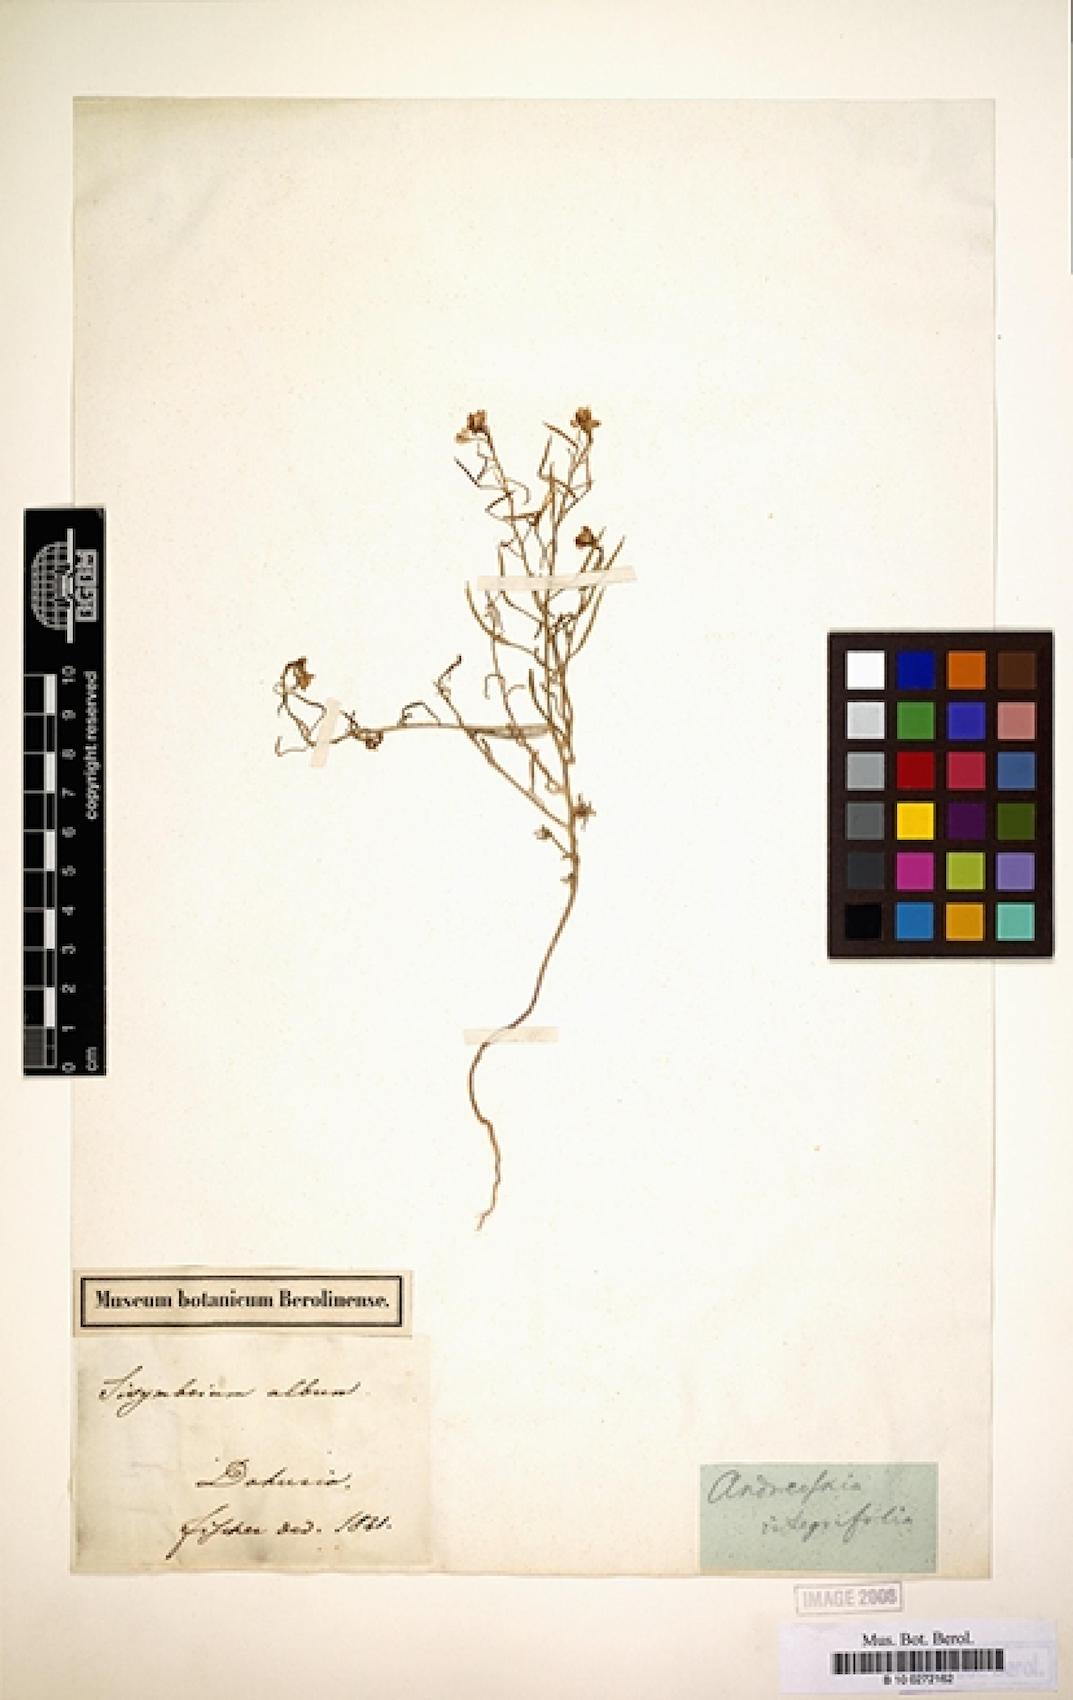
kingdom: Plantae
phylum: Tracheophyta
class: Magnoliopsida
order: Brassicales
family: Brassicaceae
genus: Dontostemon
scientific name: Dontostemon integrifolius
